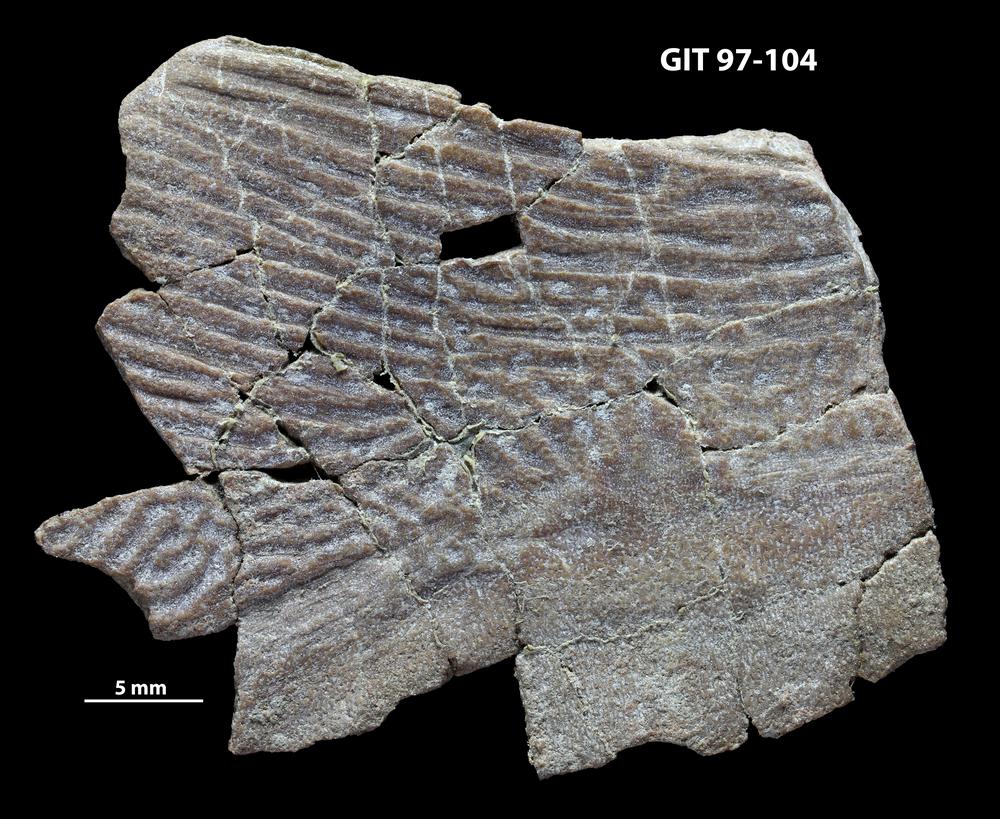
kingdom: Animalia
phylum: Chordata
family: Holonematidae
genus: Holonema
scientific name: Holonema
